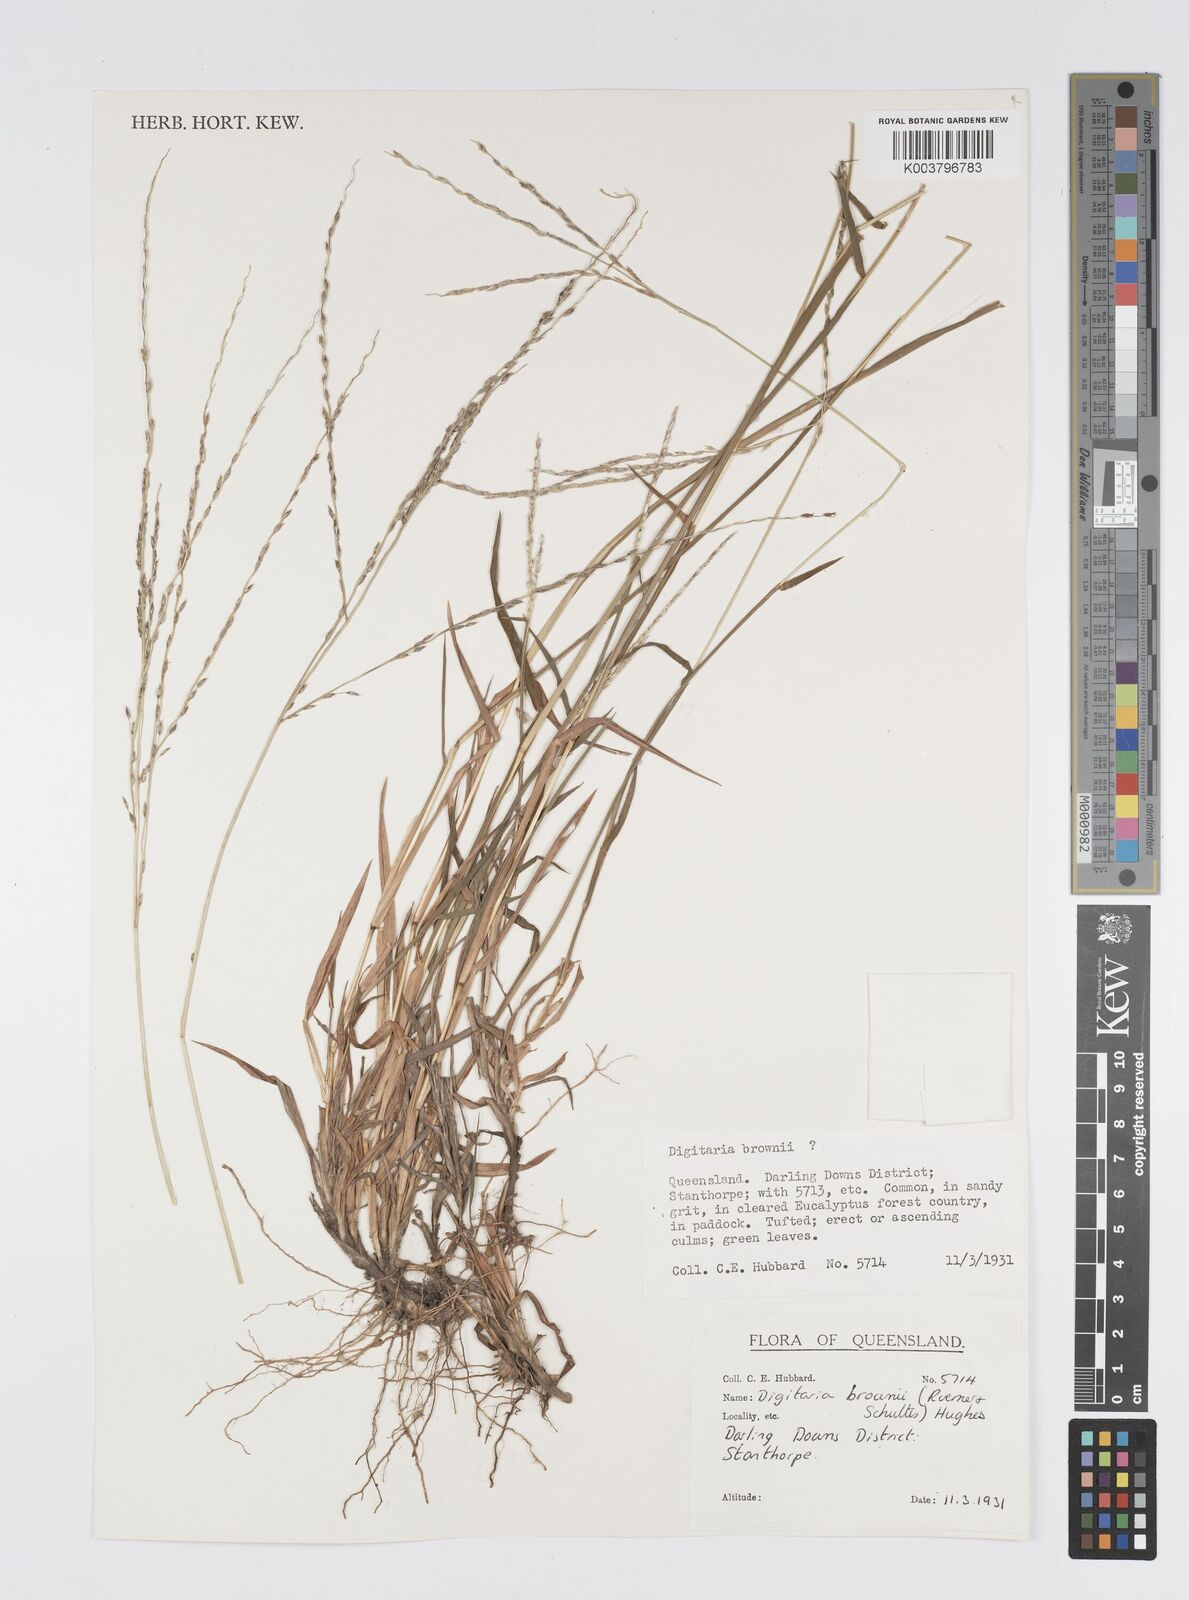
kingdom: Plantae
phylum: Tracheophyta
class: Liliopsida
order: Poales
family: Poaceae
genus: Digitaria
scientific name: Digitaria brownii
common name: Cotton grass
